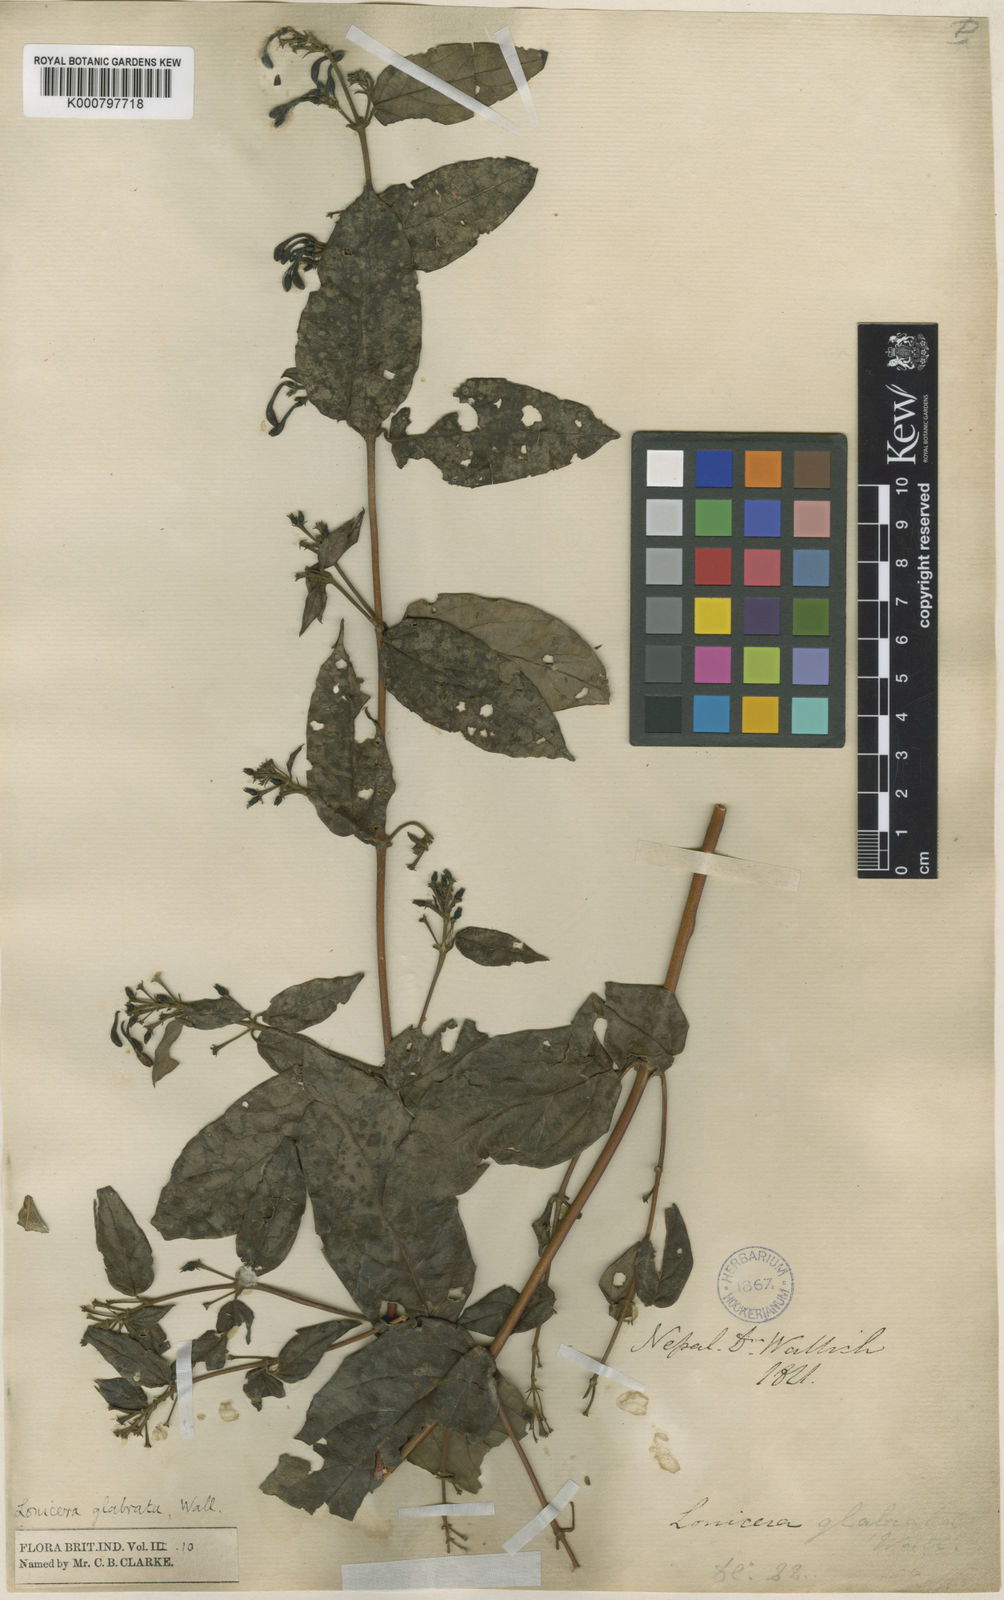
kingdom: Plantae
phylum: Tracheophyta
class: Magnoliopsida
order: Dipsacales
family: Caprifoliaceae
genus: Lonicera
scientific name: Lonicera glabrata
